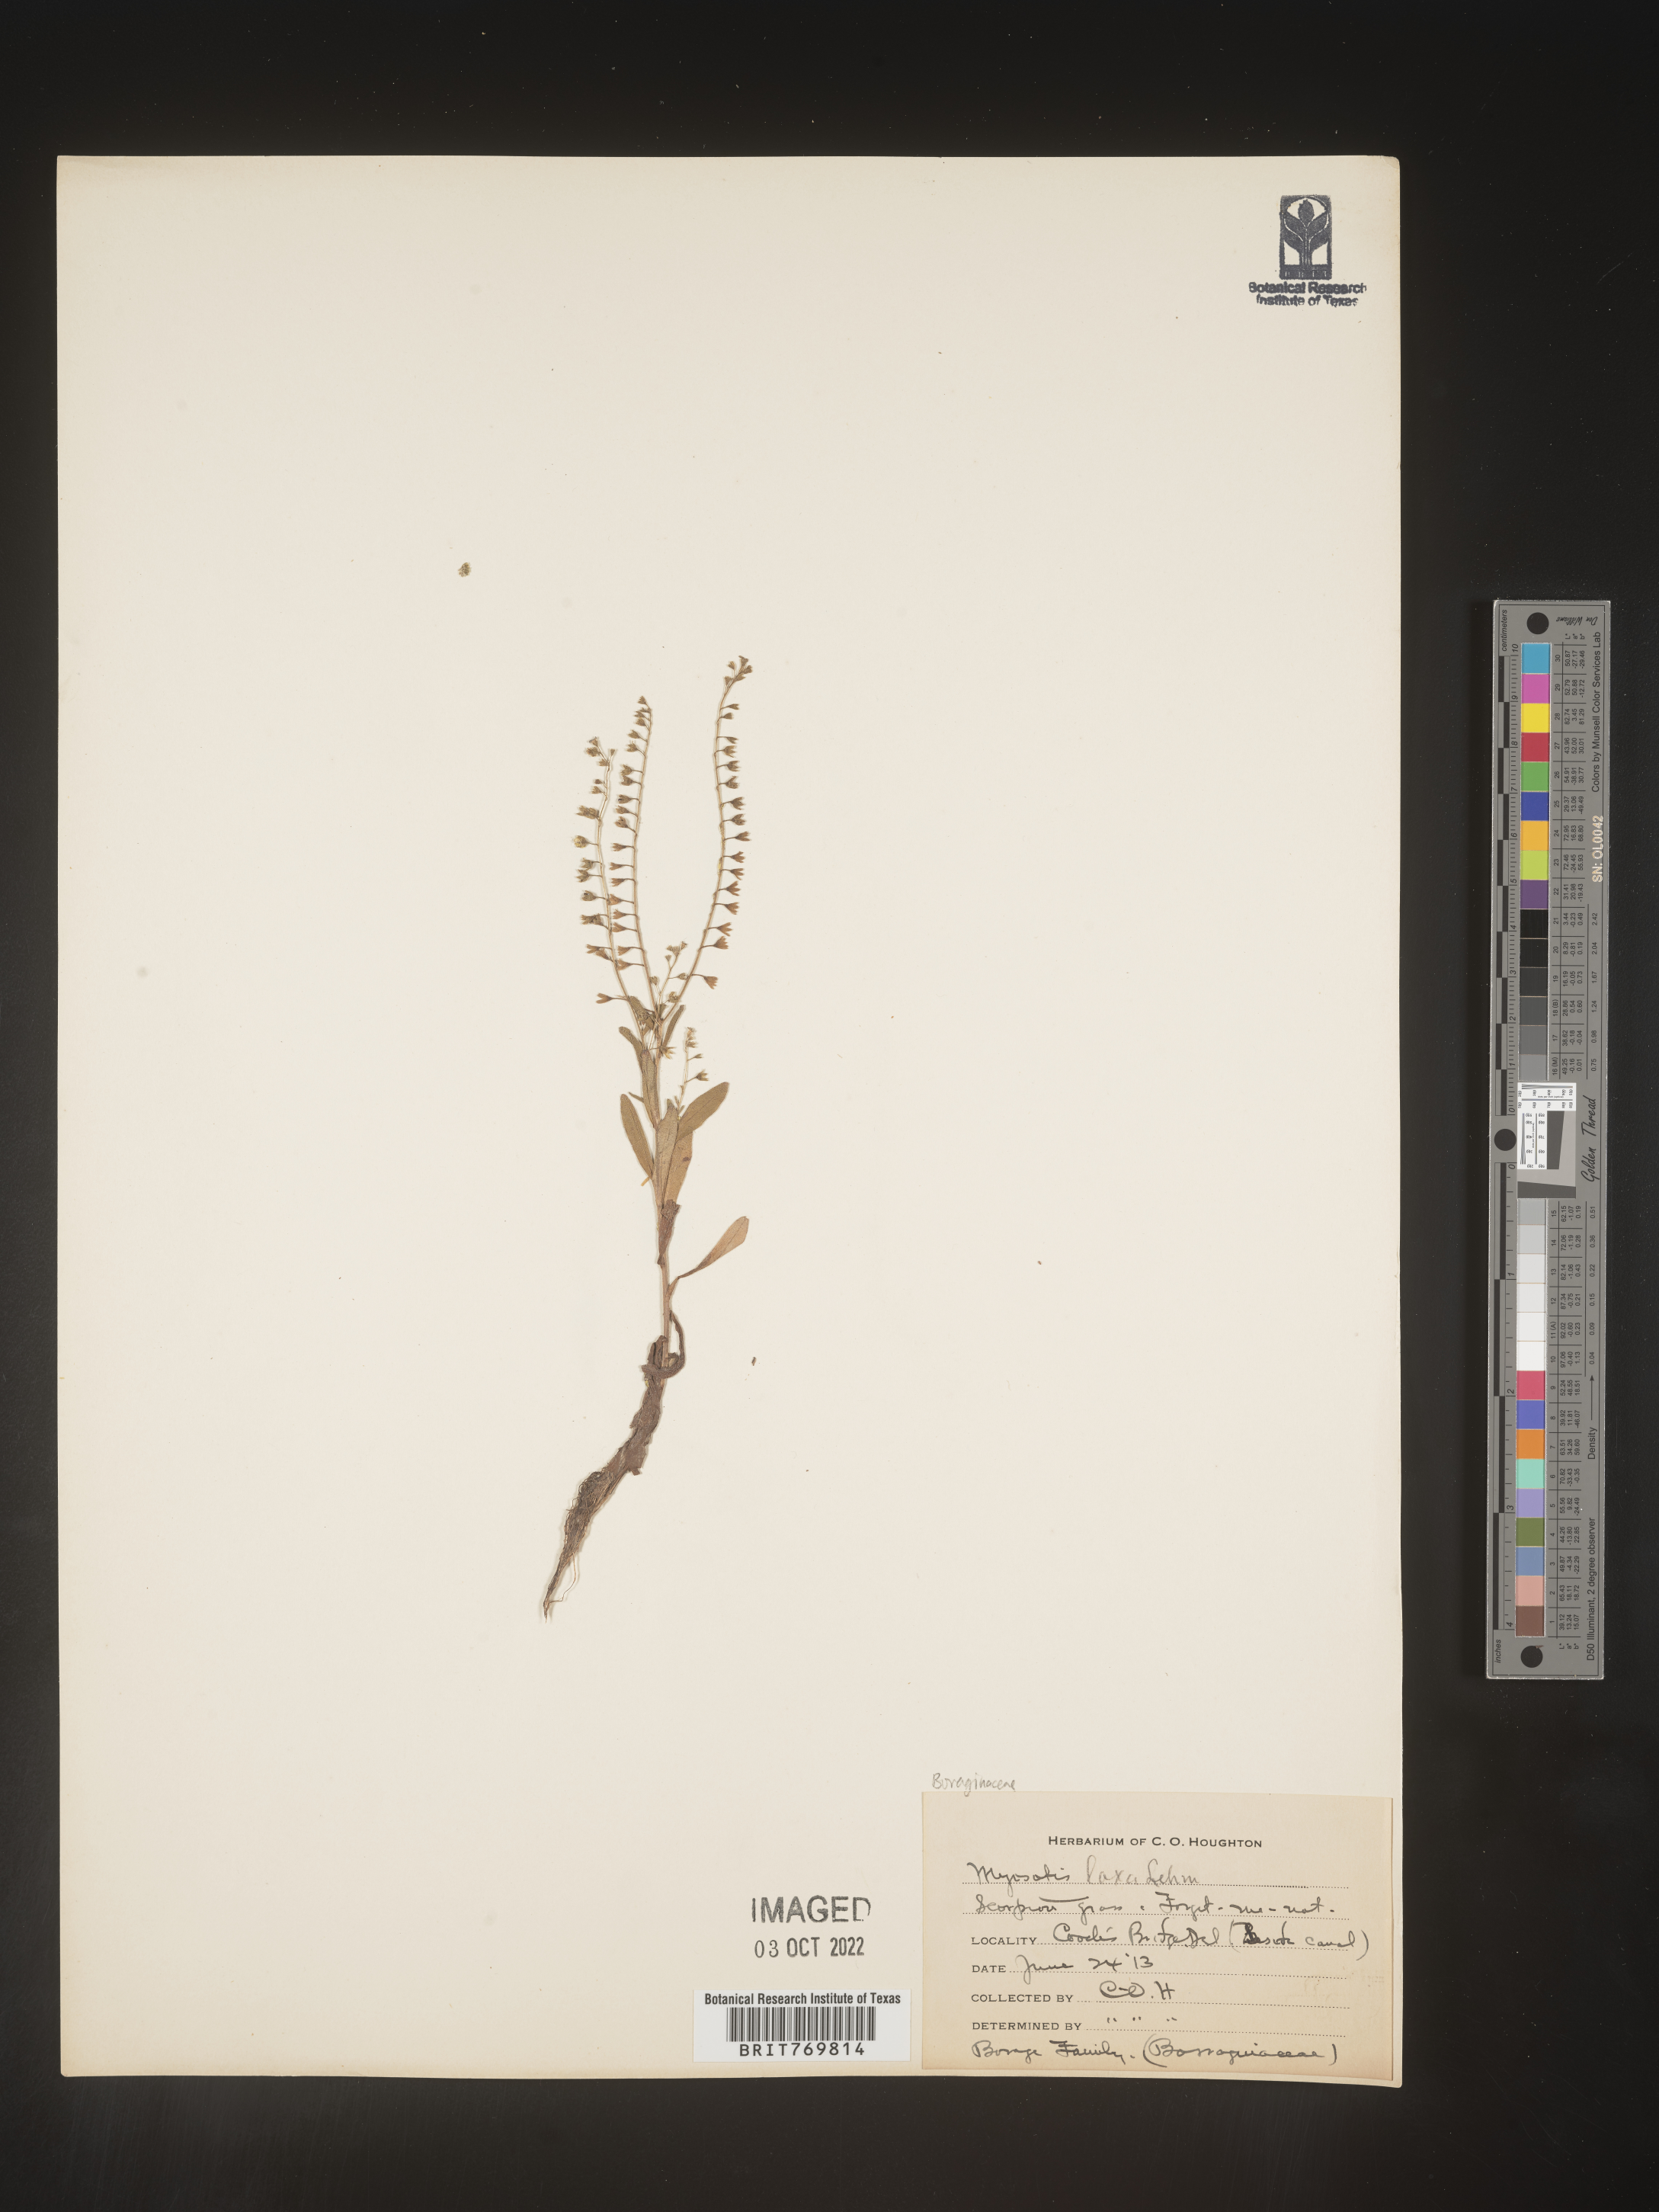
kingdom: Plantae
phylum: Tracheophyta
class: Magnoliopsida
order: Boraginales
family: Boraginaceae
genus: Myosotis
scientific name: Myosotis
